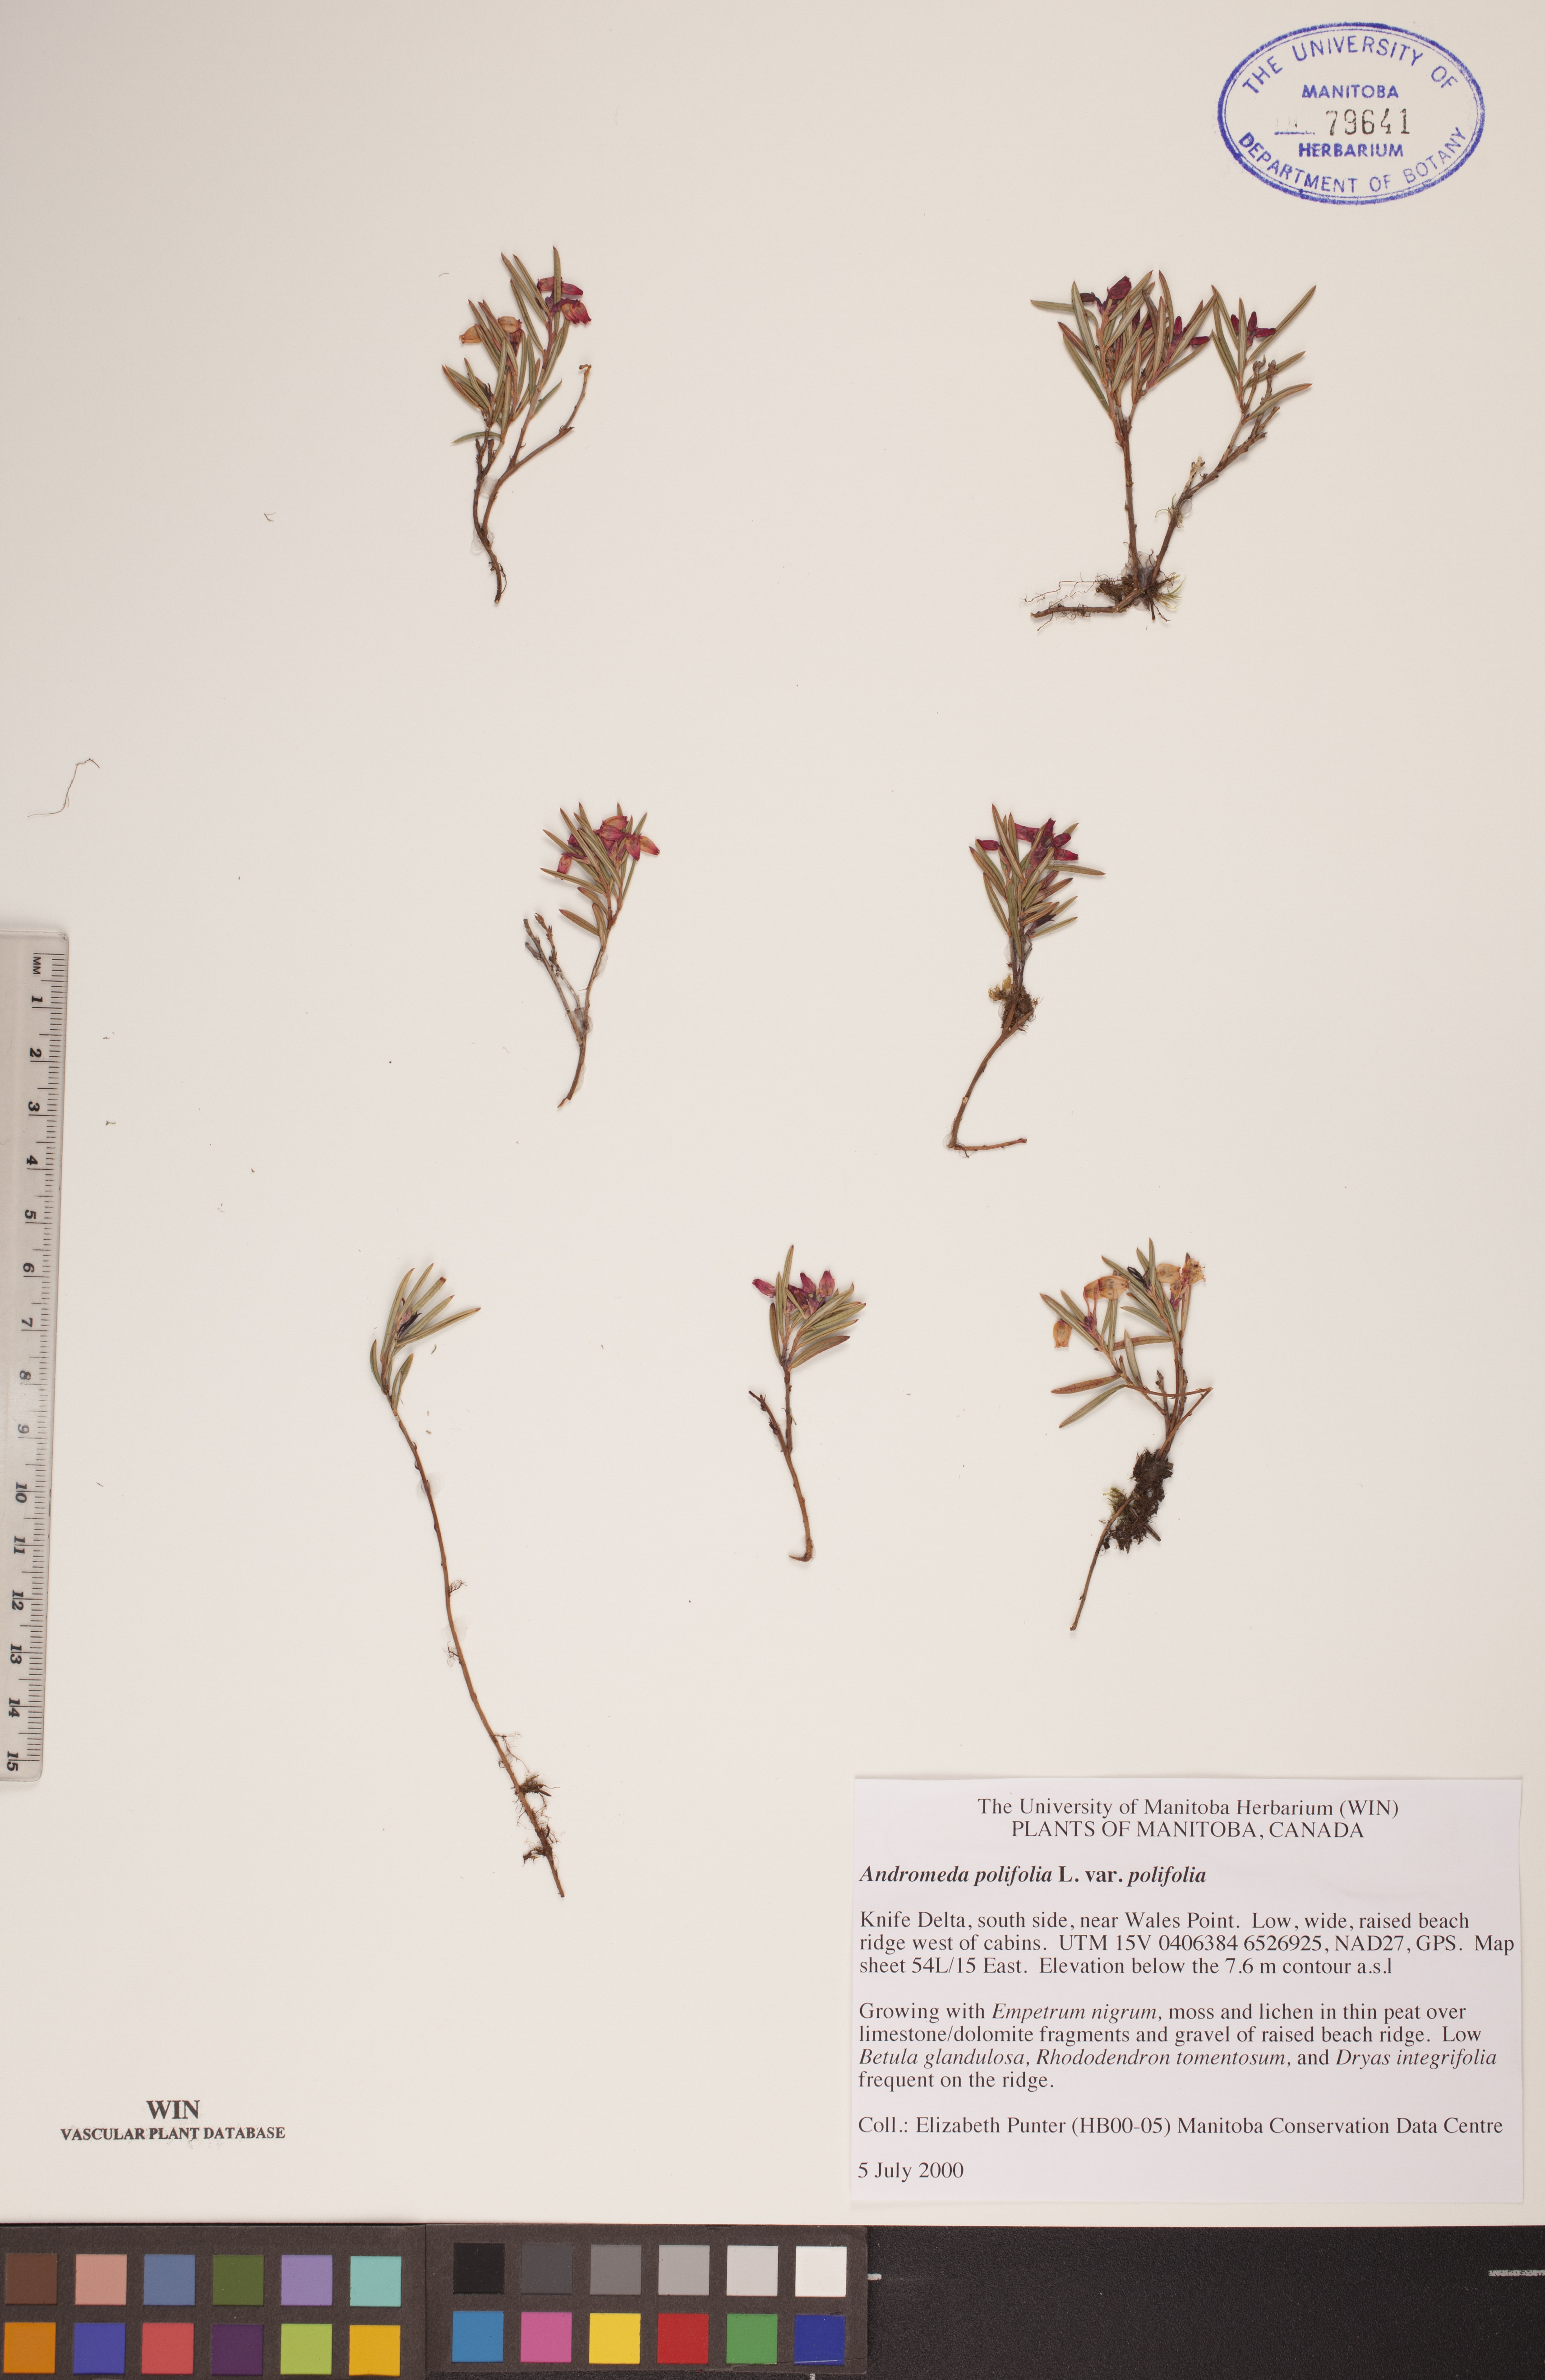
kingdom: Plantae
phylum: Tracheophyta
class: Magnoliopsida
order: Ericales
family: Ericaceae
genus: Andromeda
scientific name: Andromeda polifolia
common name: Bog-rosemary
